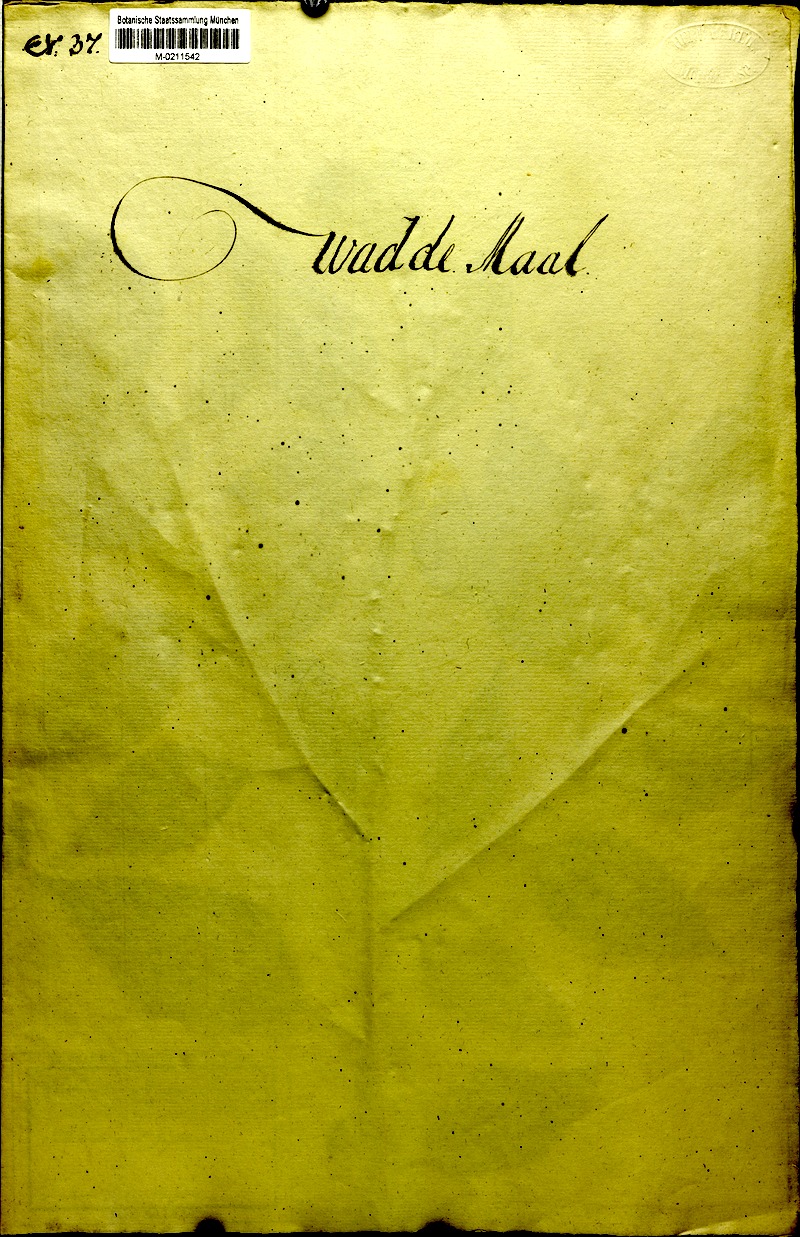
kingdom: Plantae
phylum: Tracheophyta
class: Magnoliopsida
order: Malvales
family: Malvaceae
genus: Hibiscus
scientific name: Hibiscus rosa-sinensis
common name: Hibiscus
